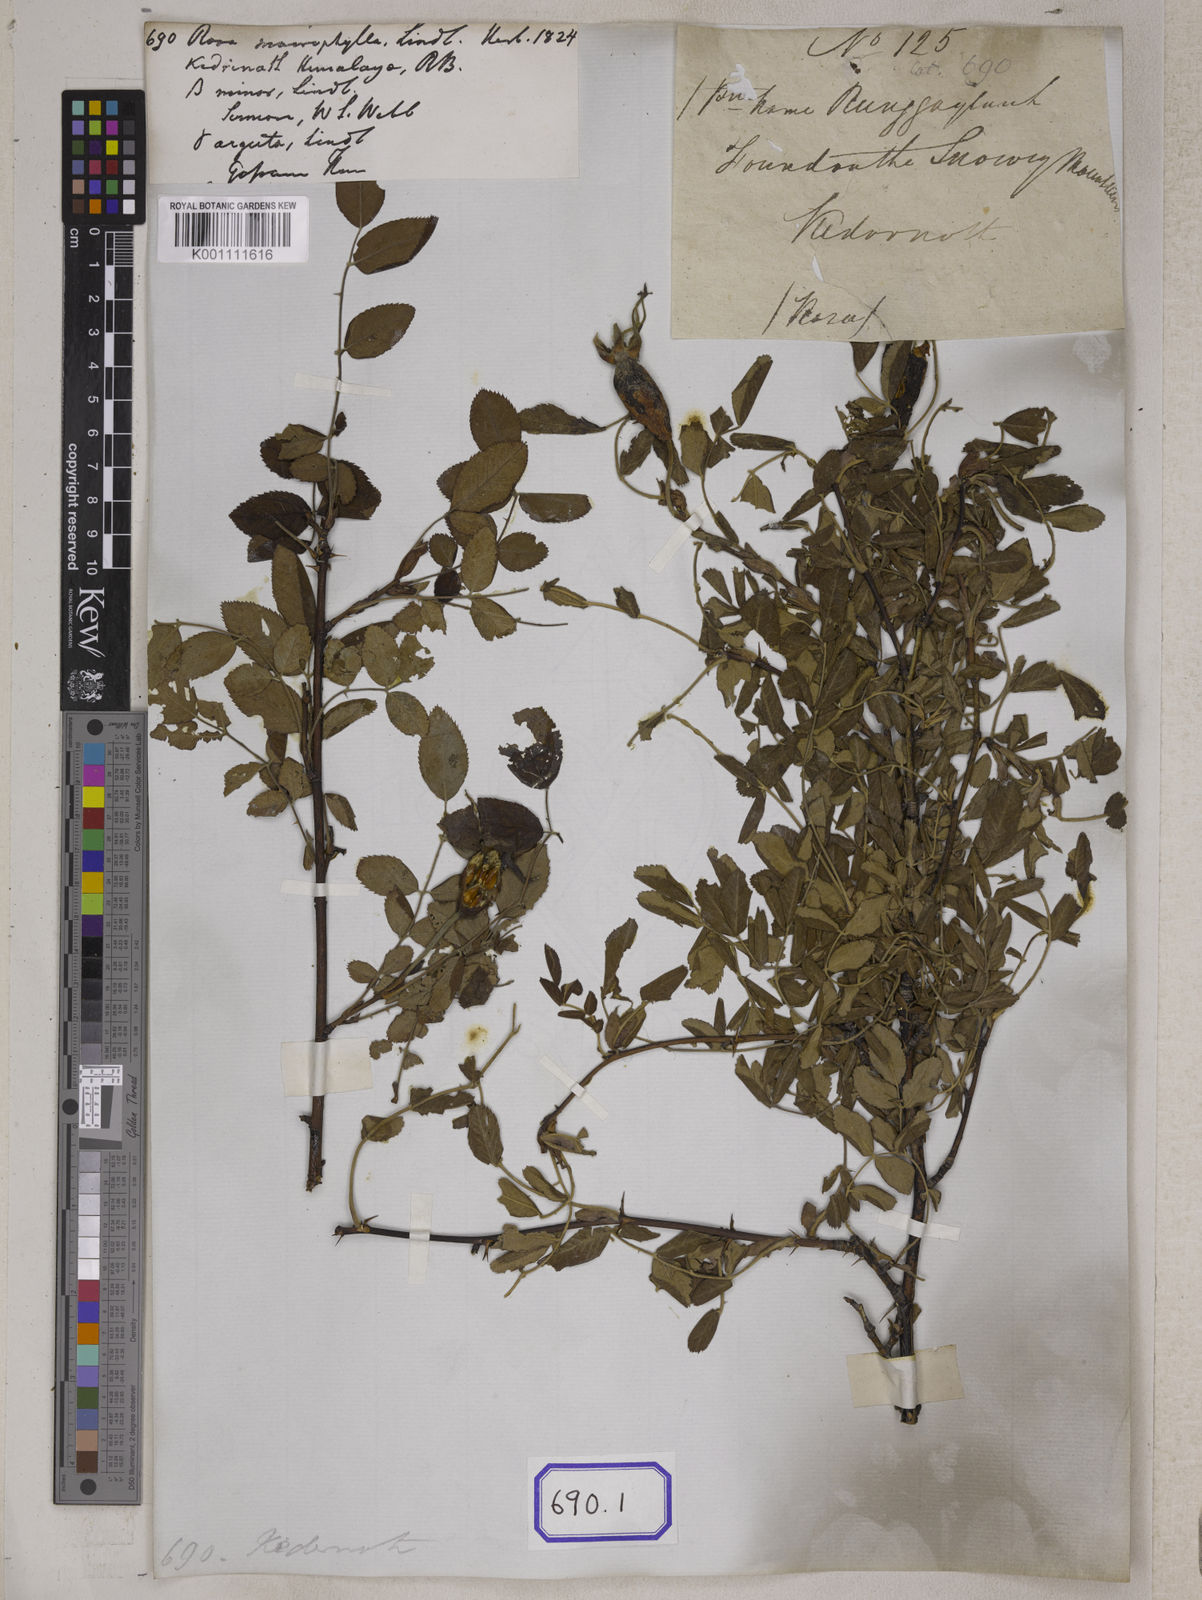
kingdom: Plantae
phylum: Tracheophyta
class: Magnoliopsida
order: Rosales
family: Rosaceae
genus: Rosa
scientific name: Rosa macrophylla
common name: Big-hip rose
